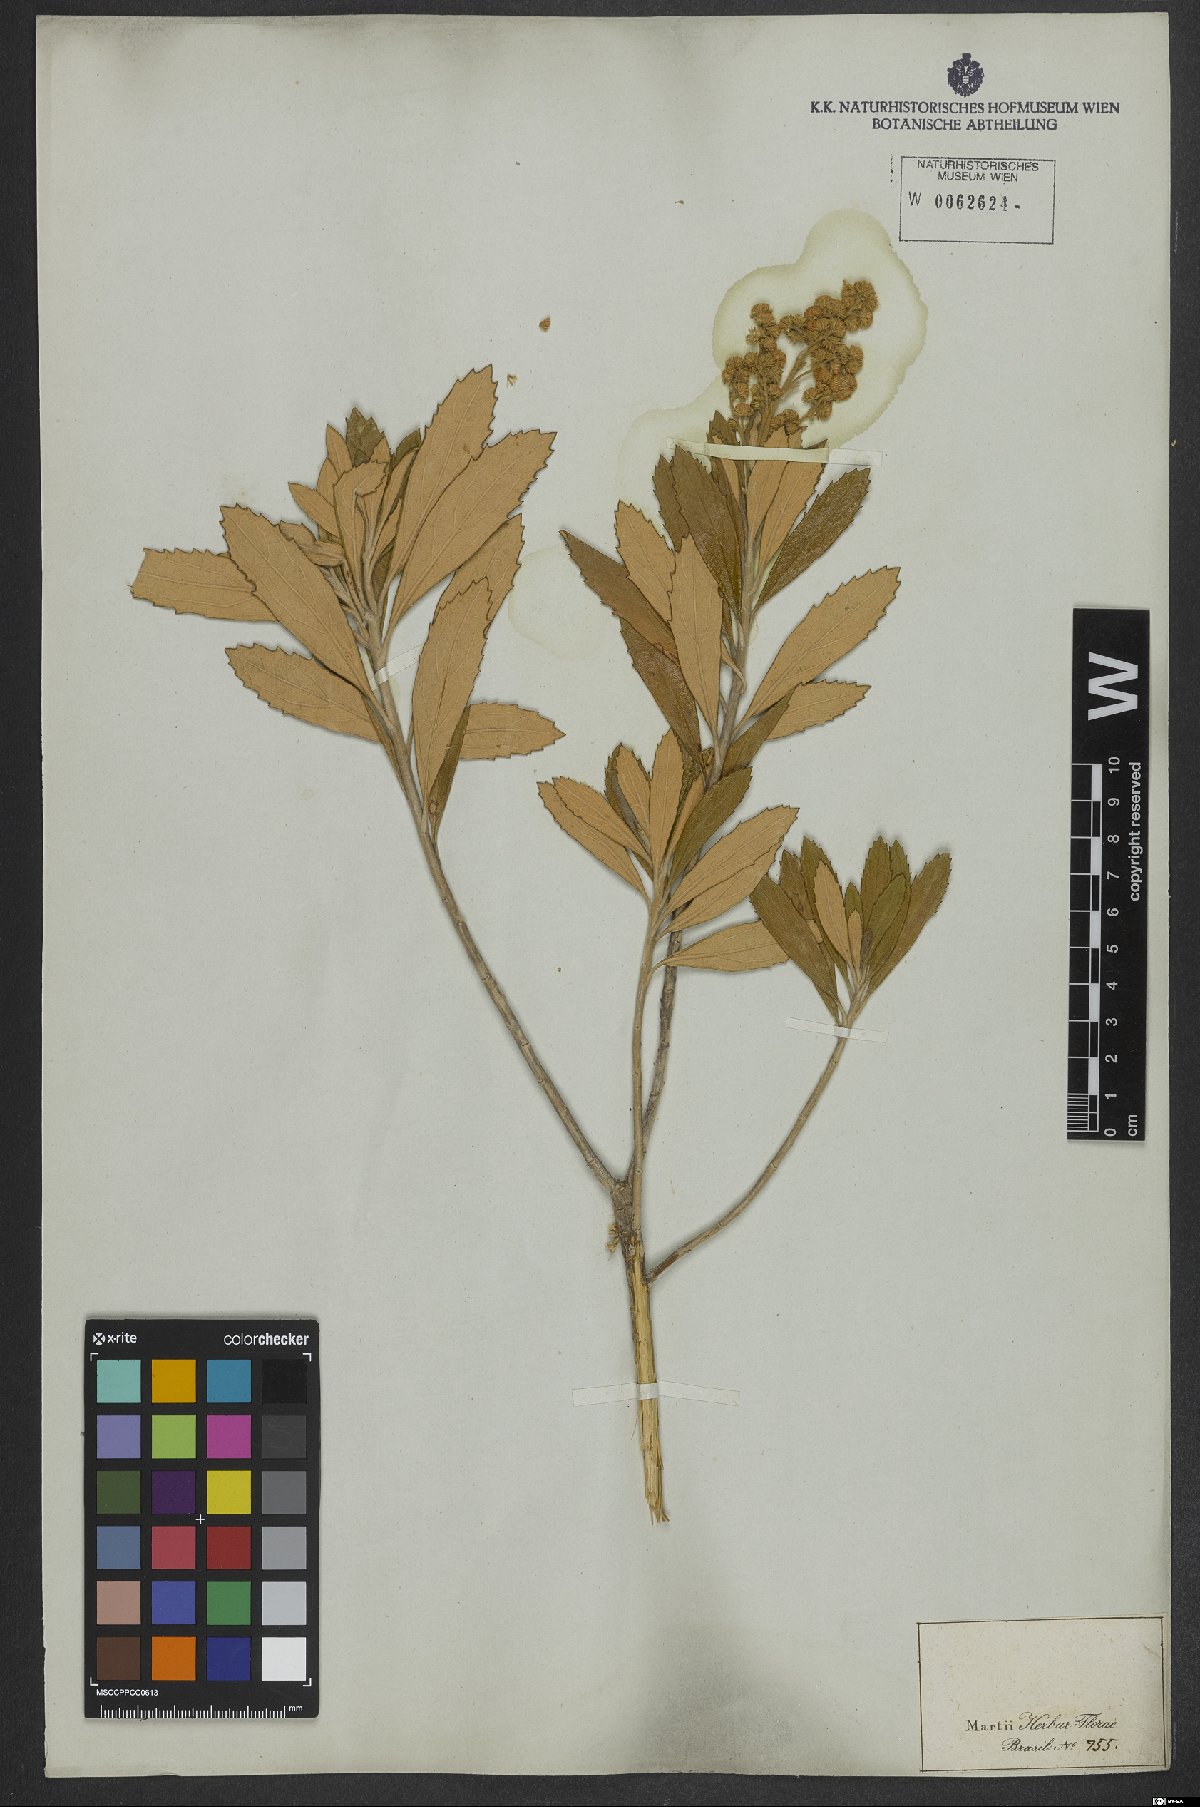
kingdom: Plantae
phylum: Tracheophyta
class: Magnoliopsida
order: Asterales
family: Asteraceae
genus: Baccharis
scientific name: Baccharis tarchonanthoides
